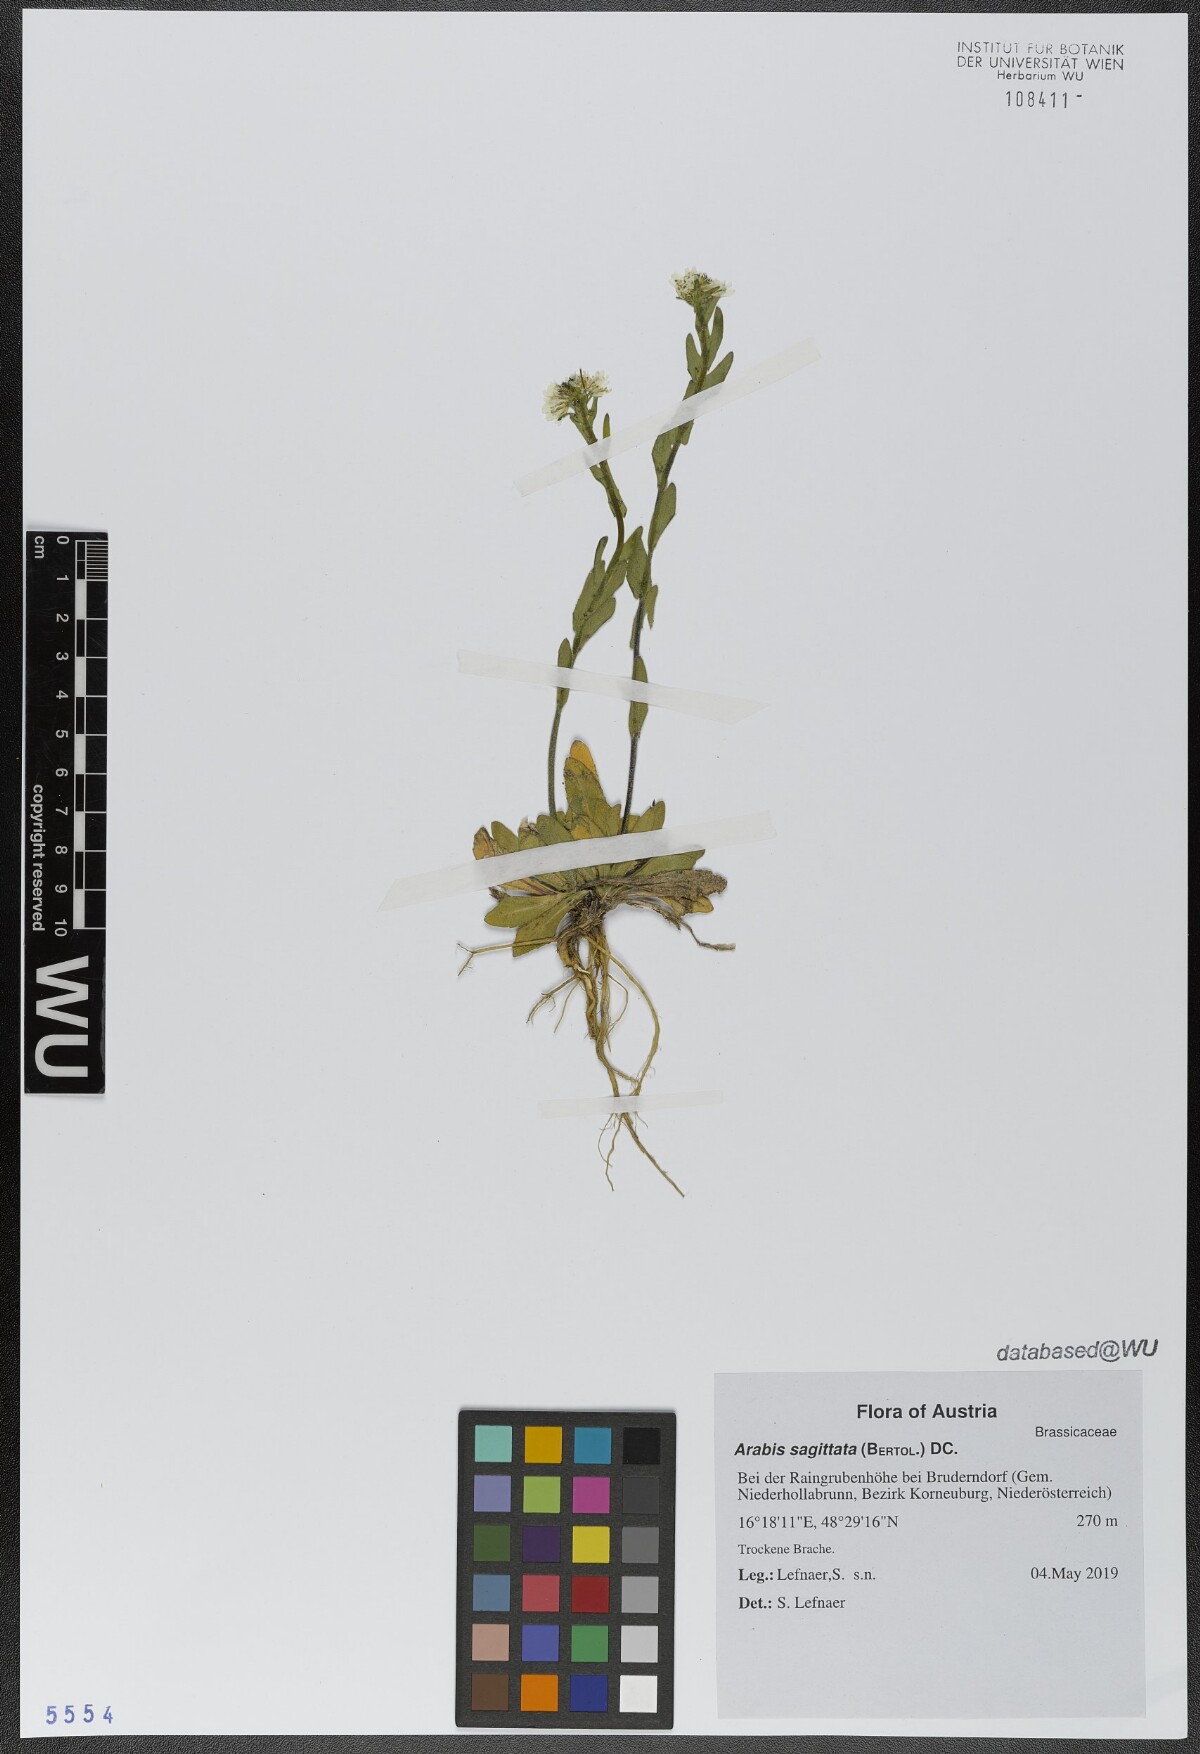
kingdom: Plantae
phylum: Tracheophyta
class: Magnoliopsida
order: Brassicales
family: Brassicaceae
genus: Arabis
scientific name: Arabis sagittata
